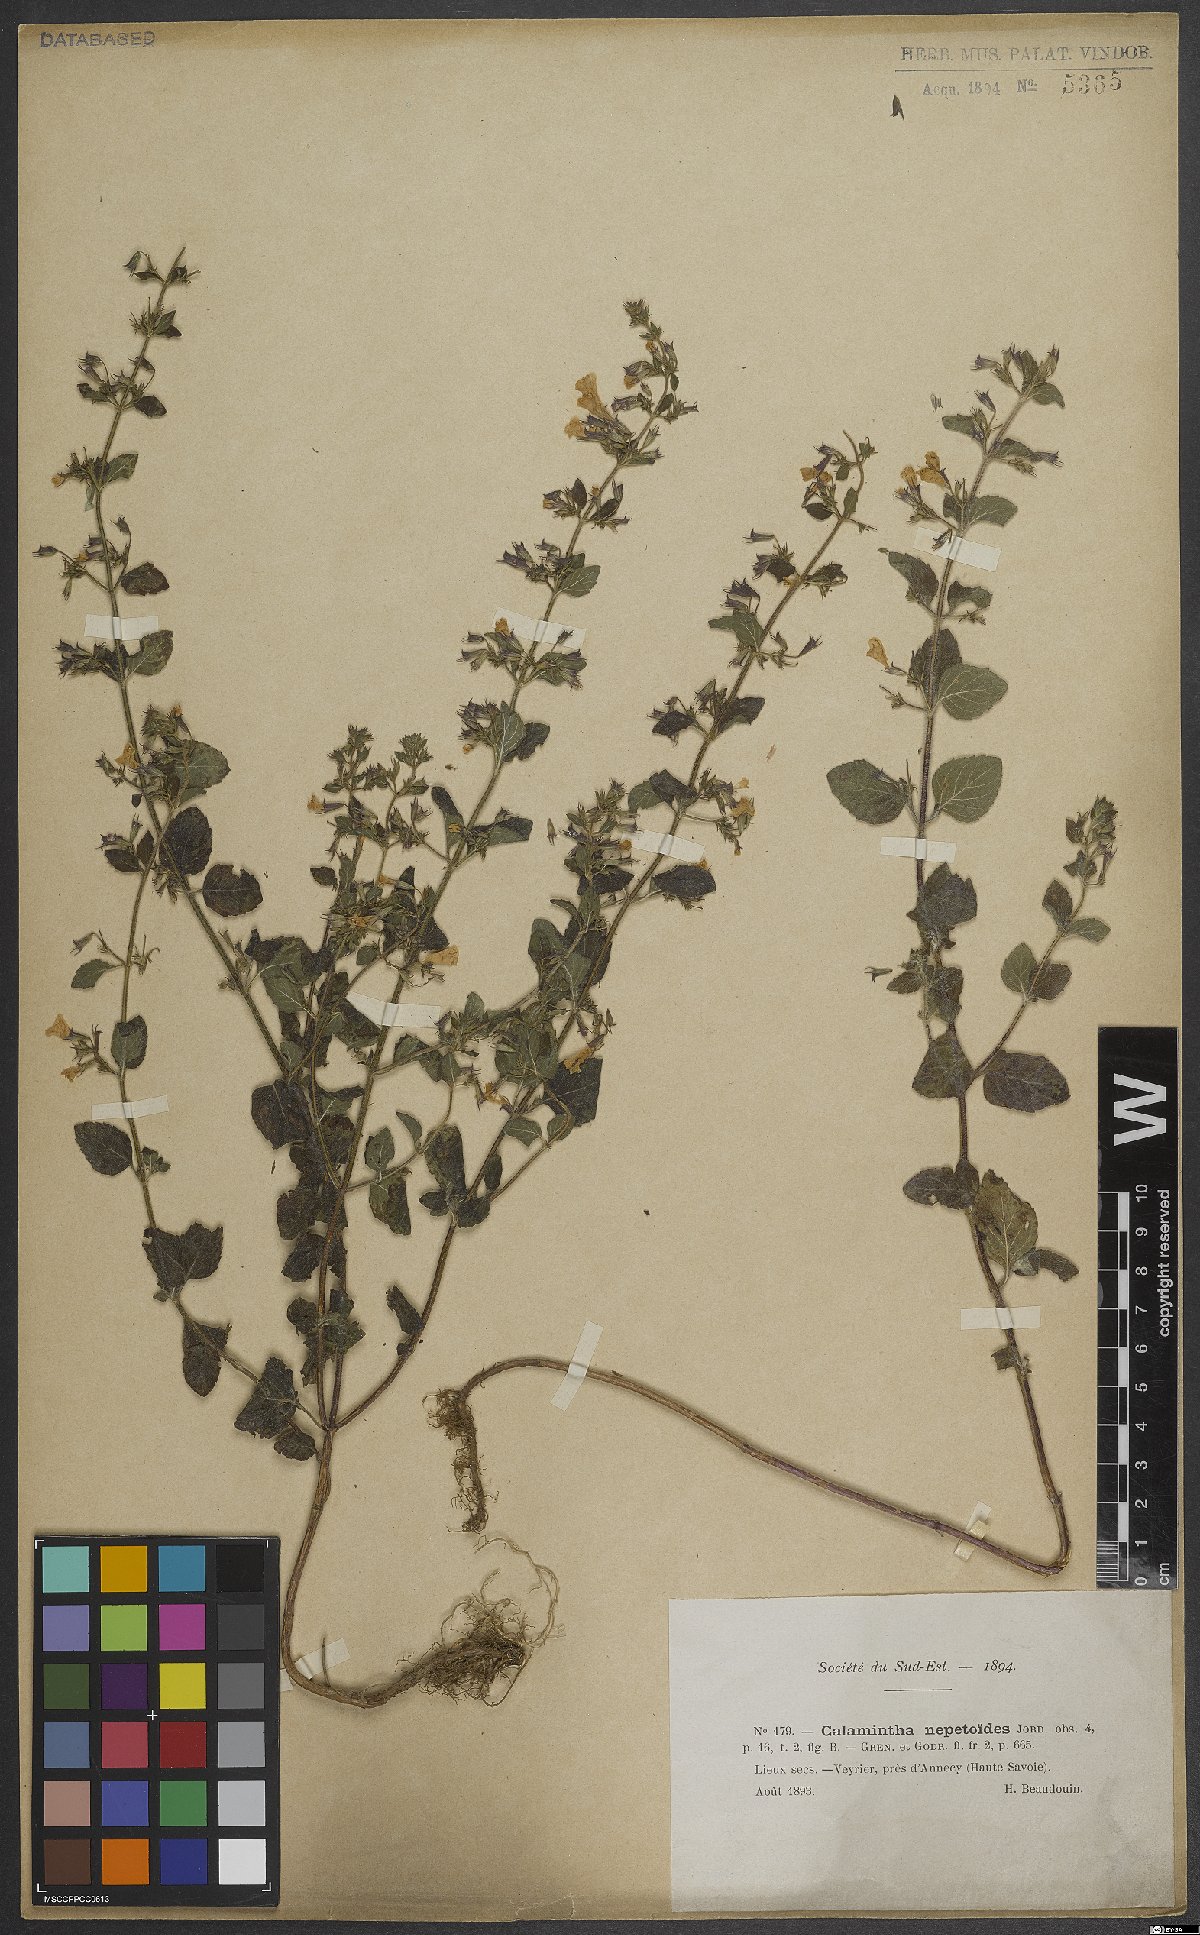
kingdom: Plantae
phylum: Tracheophyta
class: Magnoliopsida
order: Lamiales
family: Lamiaceae
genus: Clinopodium
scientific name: Clinopodium nepeta
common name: Lesser calamint
